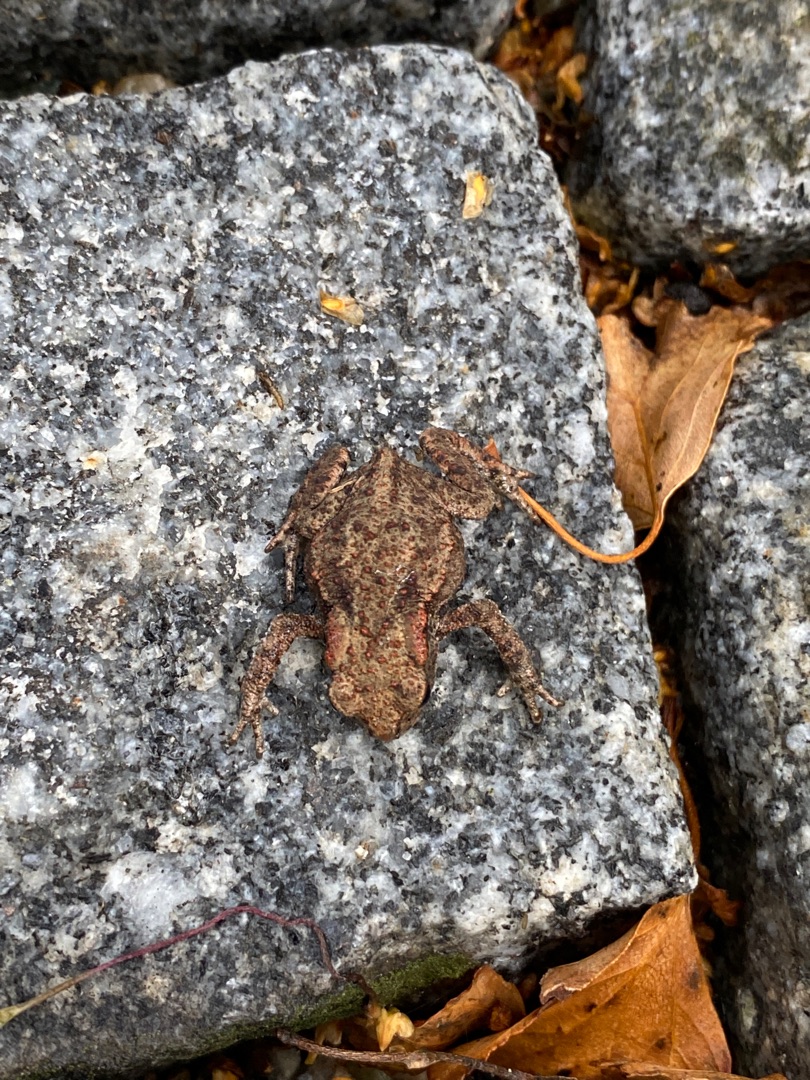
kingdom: Animalia
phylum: Chordata
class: Amphibia
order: Anura
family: Bufonidae
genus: Bufo
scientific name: Bufo bufo
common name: Skrubtudse
